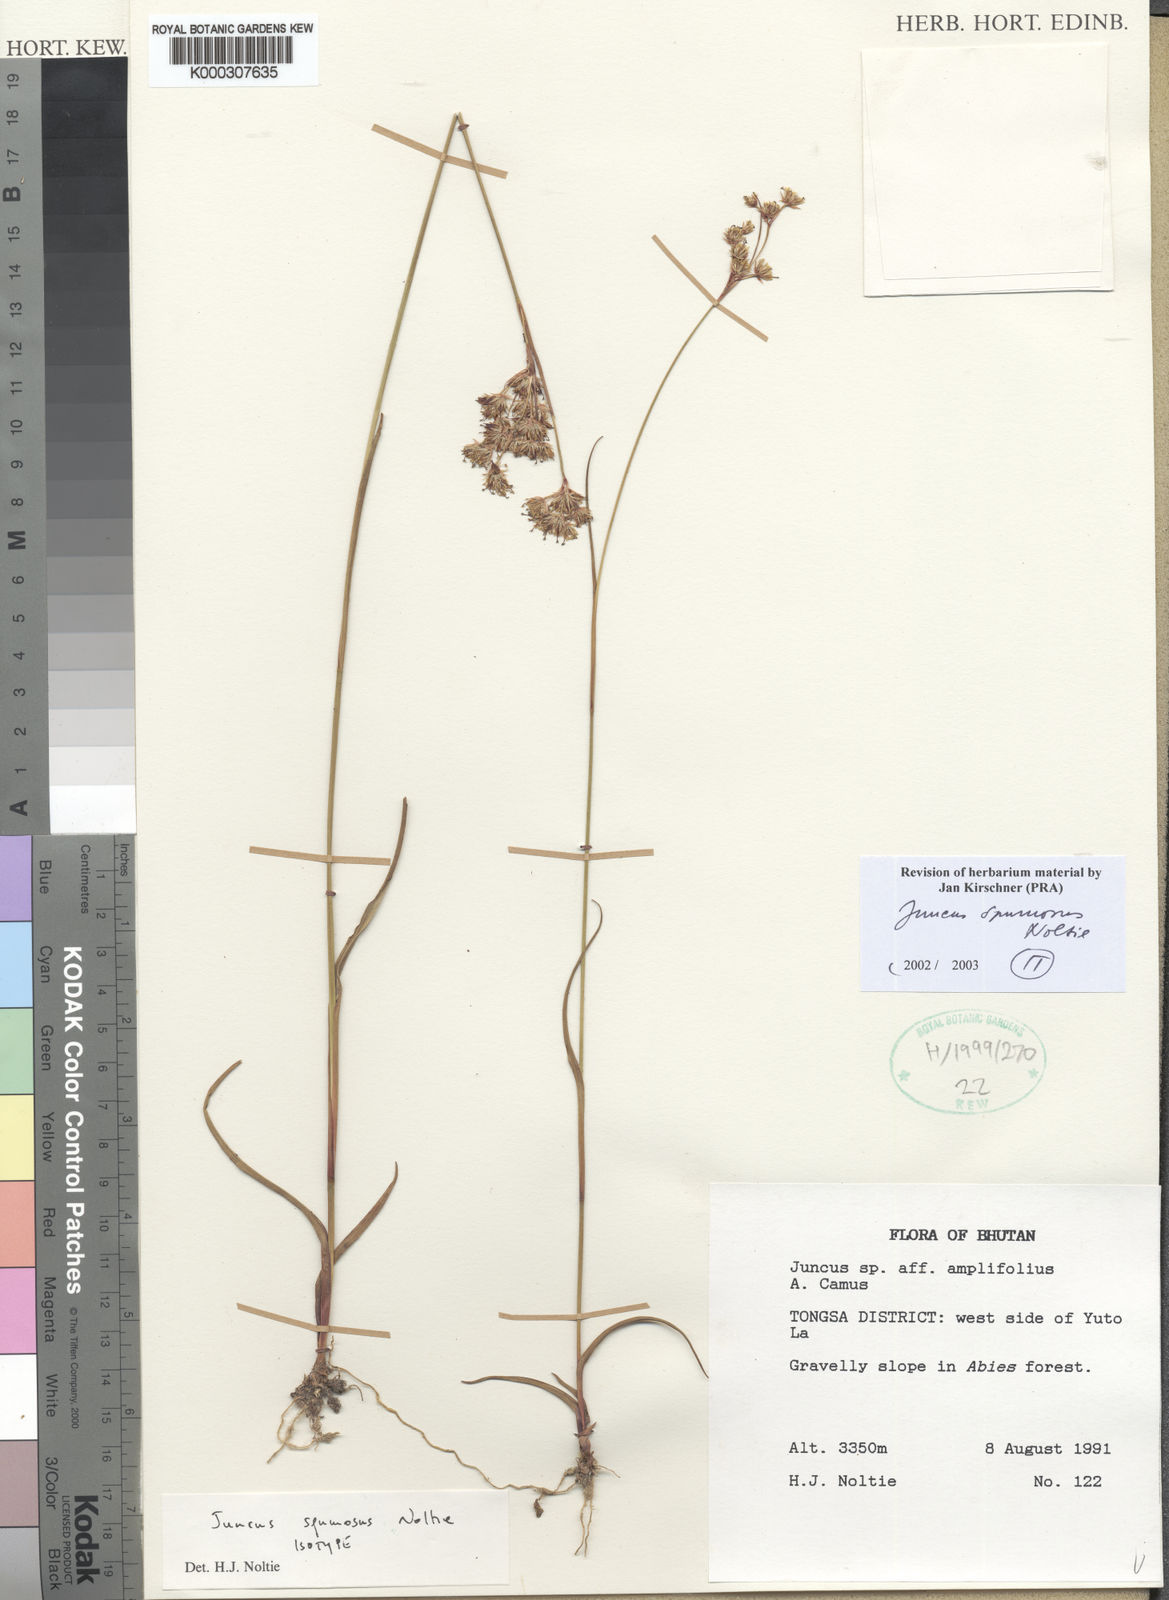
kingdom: Plantae
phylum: Tracheophyta
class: Liliopsida
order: Poales
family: Juncaceae
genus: Juncus
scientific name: Juncus spumosus
